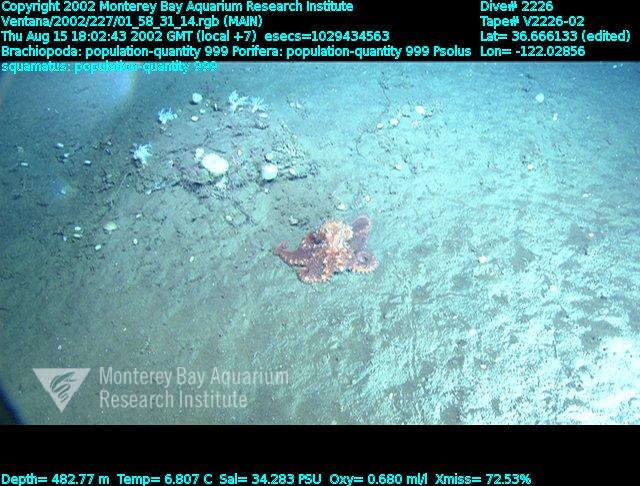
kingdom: Animalia
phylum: Porifera
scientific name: Porifera
